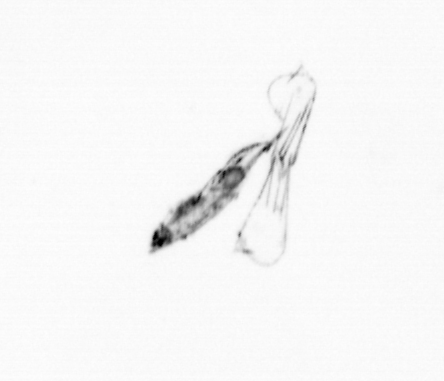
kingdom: Chromista
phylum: Ochrophyta
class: Bacillariophyceae
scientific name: Bacillariophyceae
